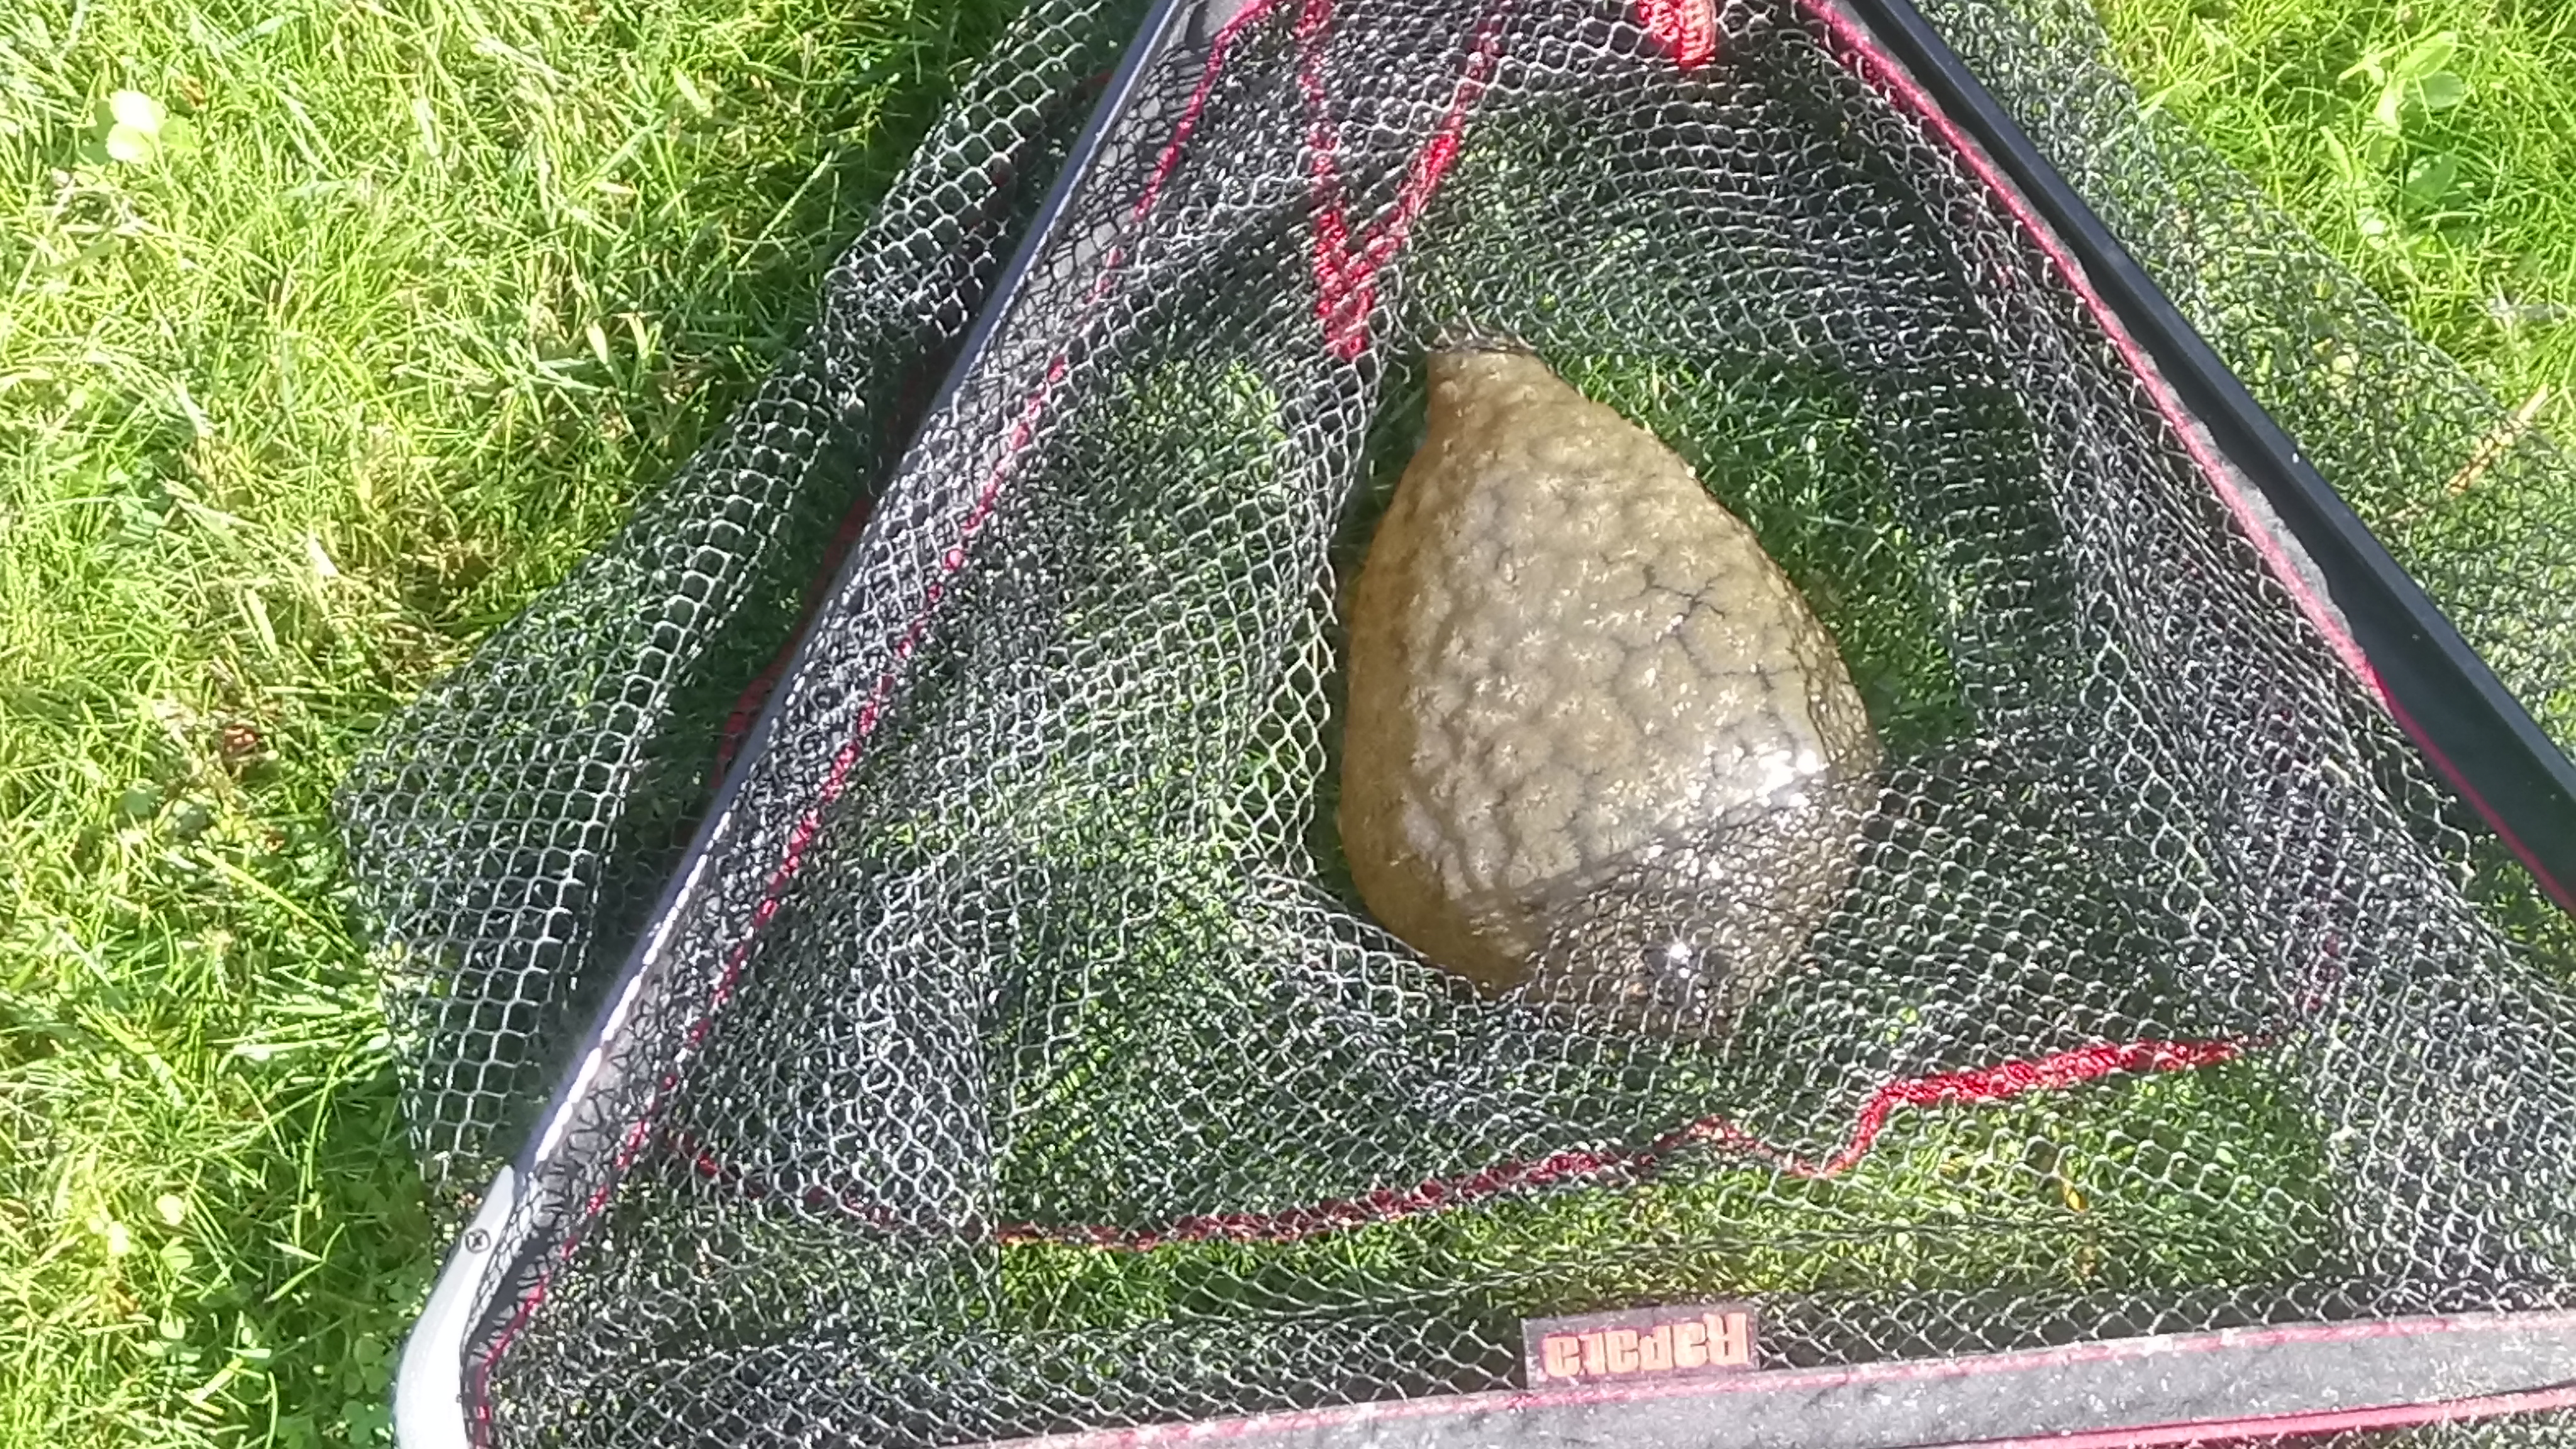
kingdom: Animalia
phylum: Bryozoa
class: Phylactolaemata
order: Plumatellida
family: Pectinatellidae
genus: Pectinatella
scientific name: Pectinatella magnifica
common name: Magnificent bryozoan
